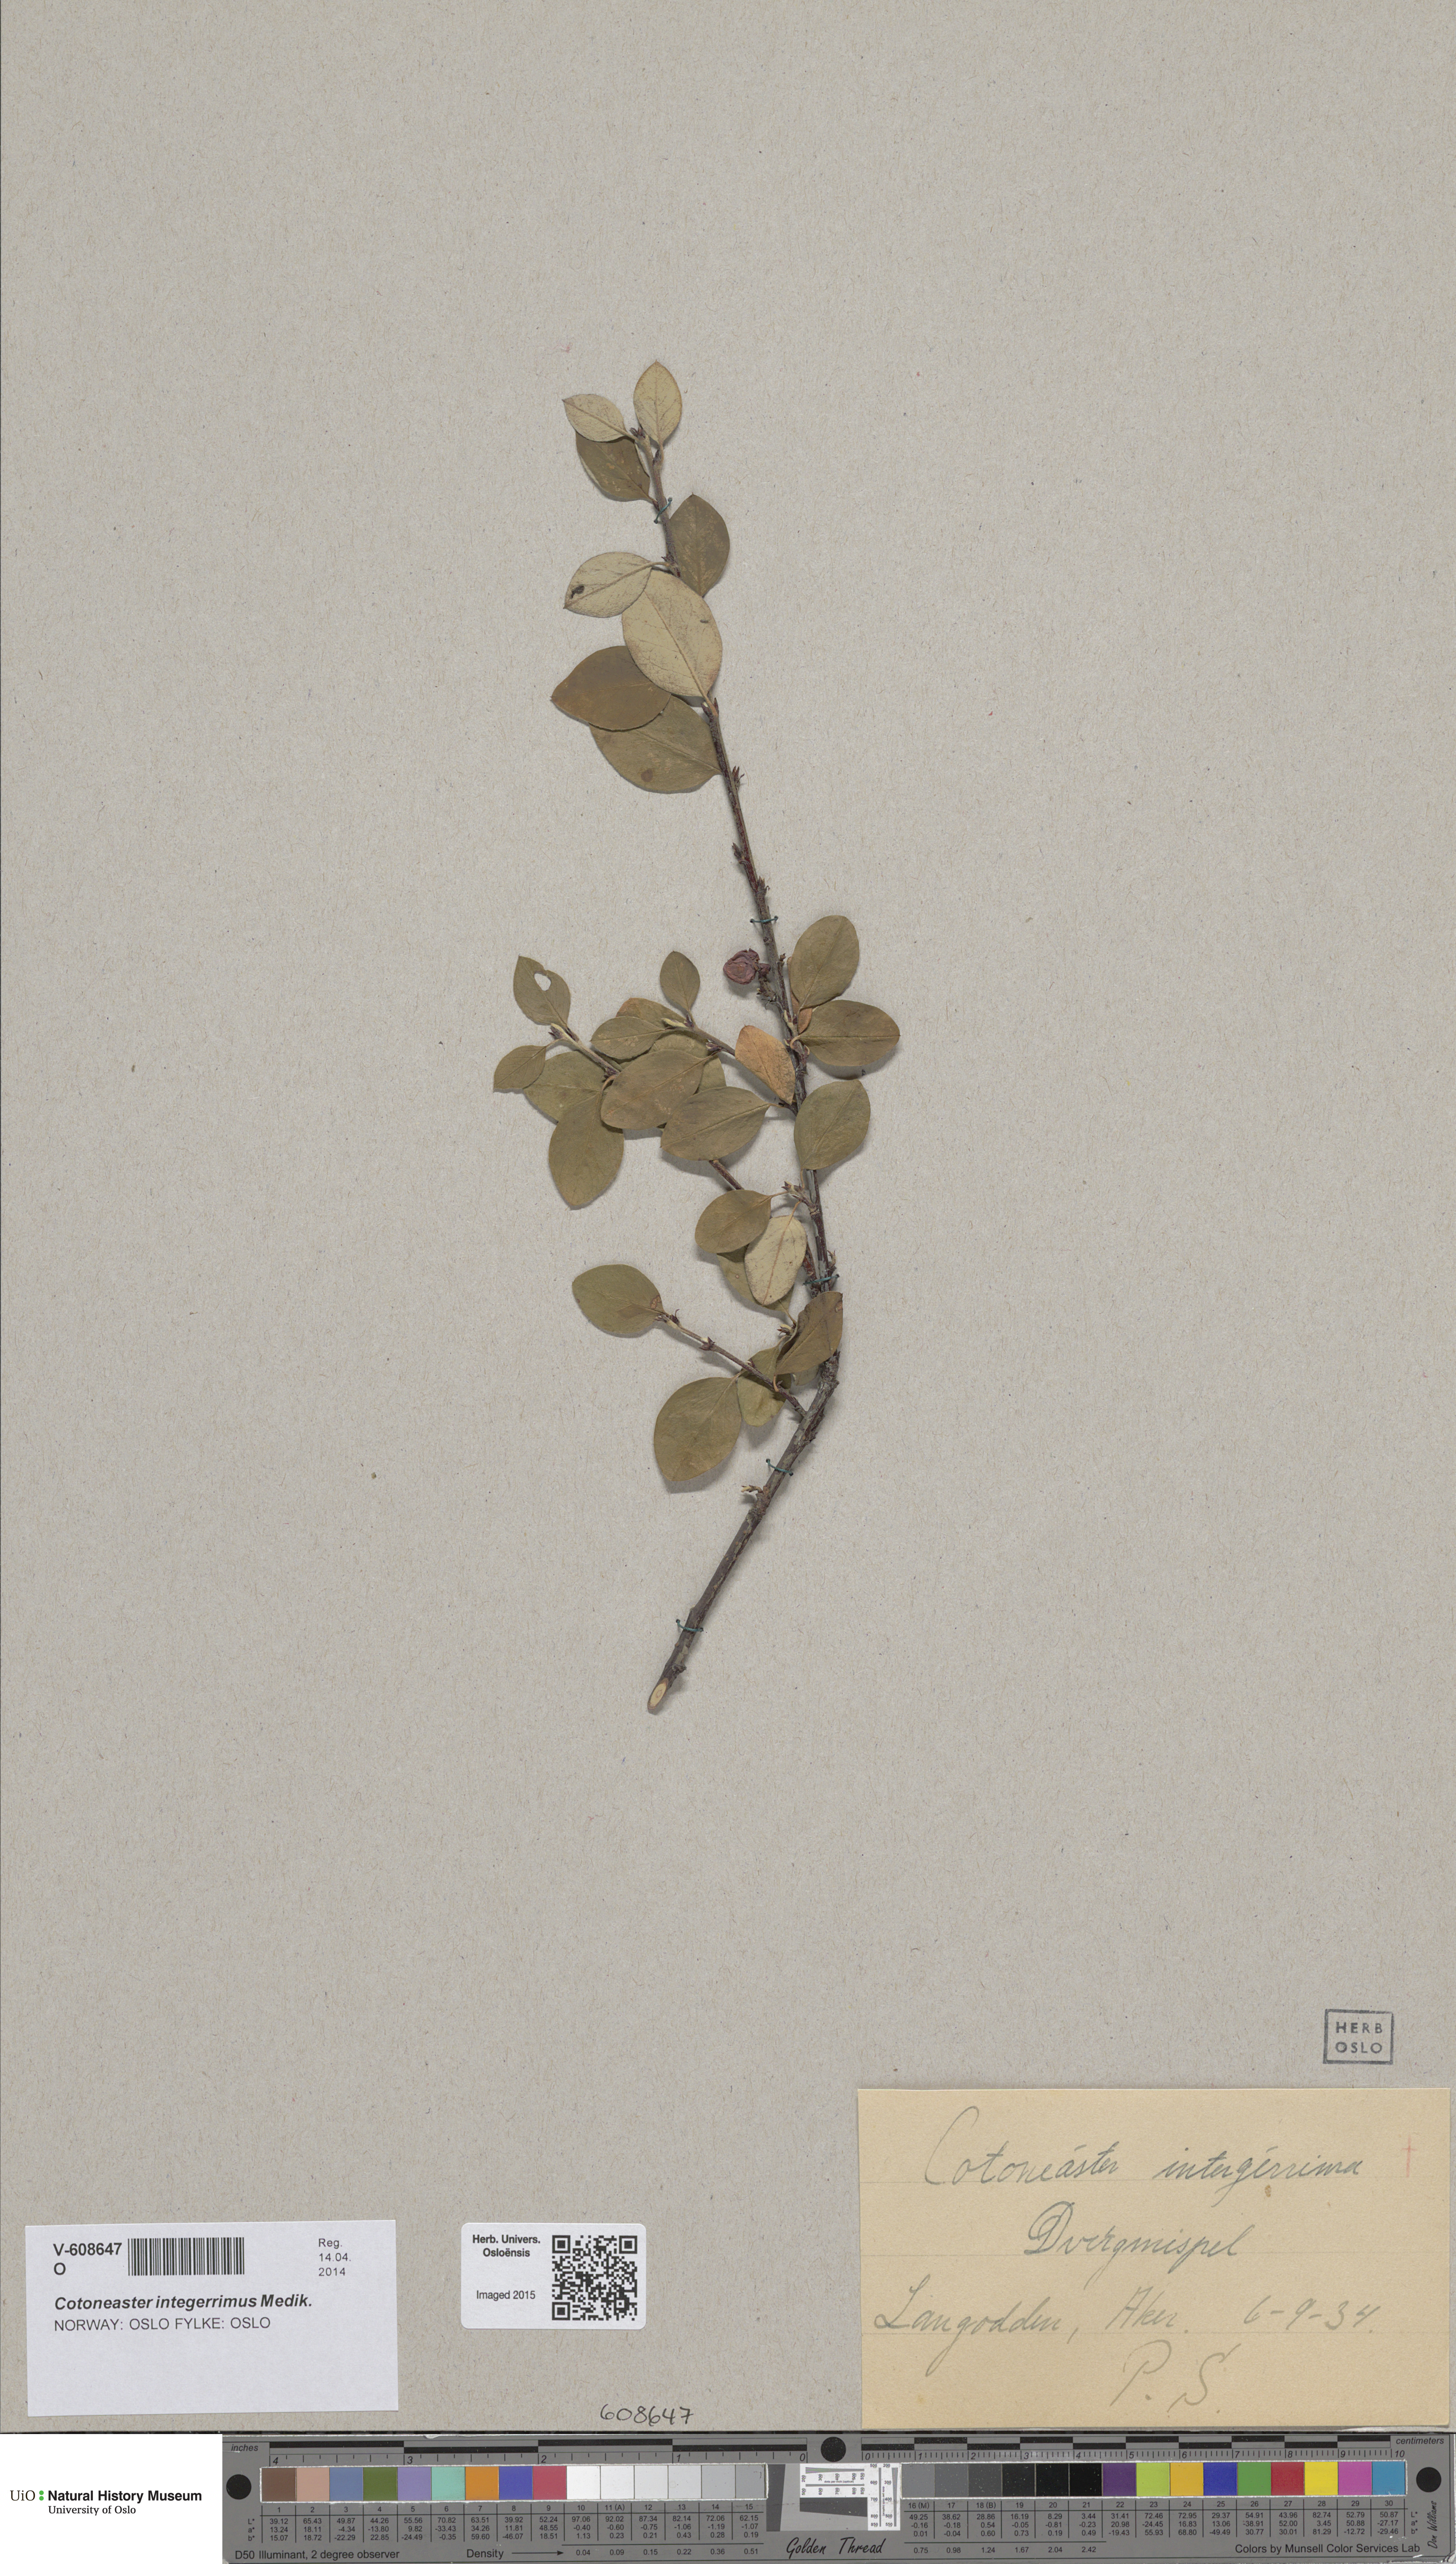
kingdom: Plantae
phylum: Tracheophyta
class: Magnoliopsida
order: Rosales
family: Rosaceae
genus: Cotoneaster
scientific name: Cotoneaster integerrimus
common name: Wild cotoneaster
